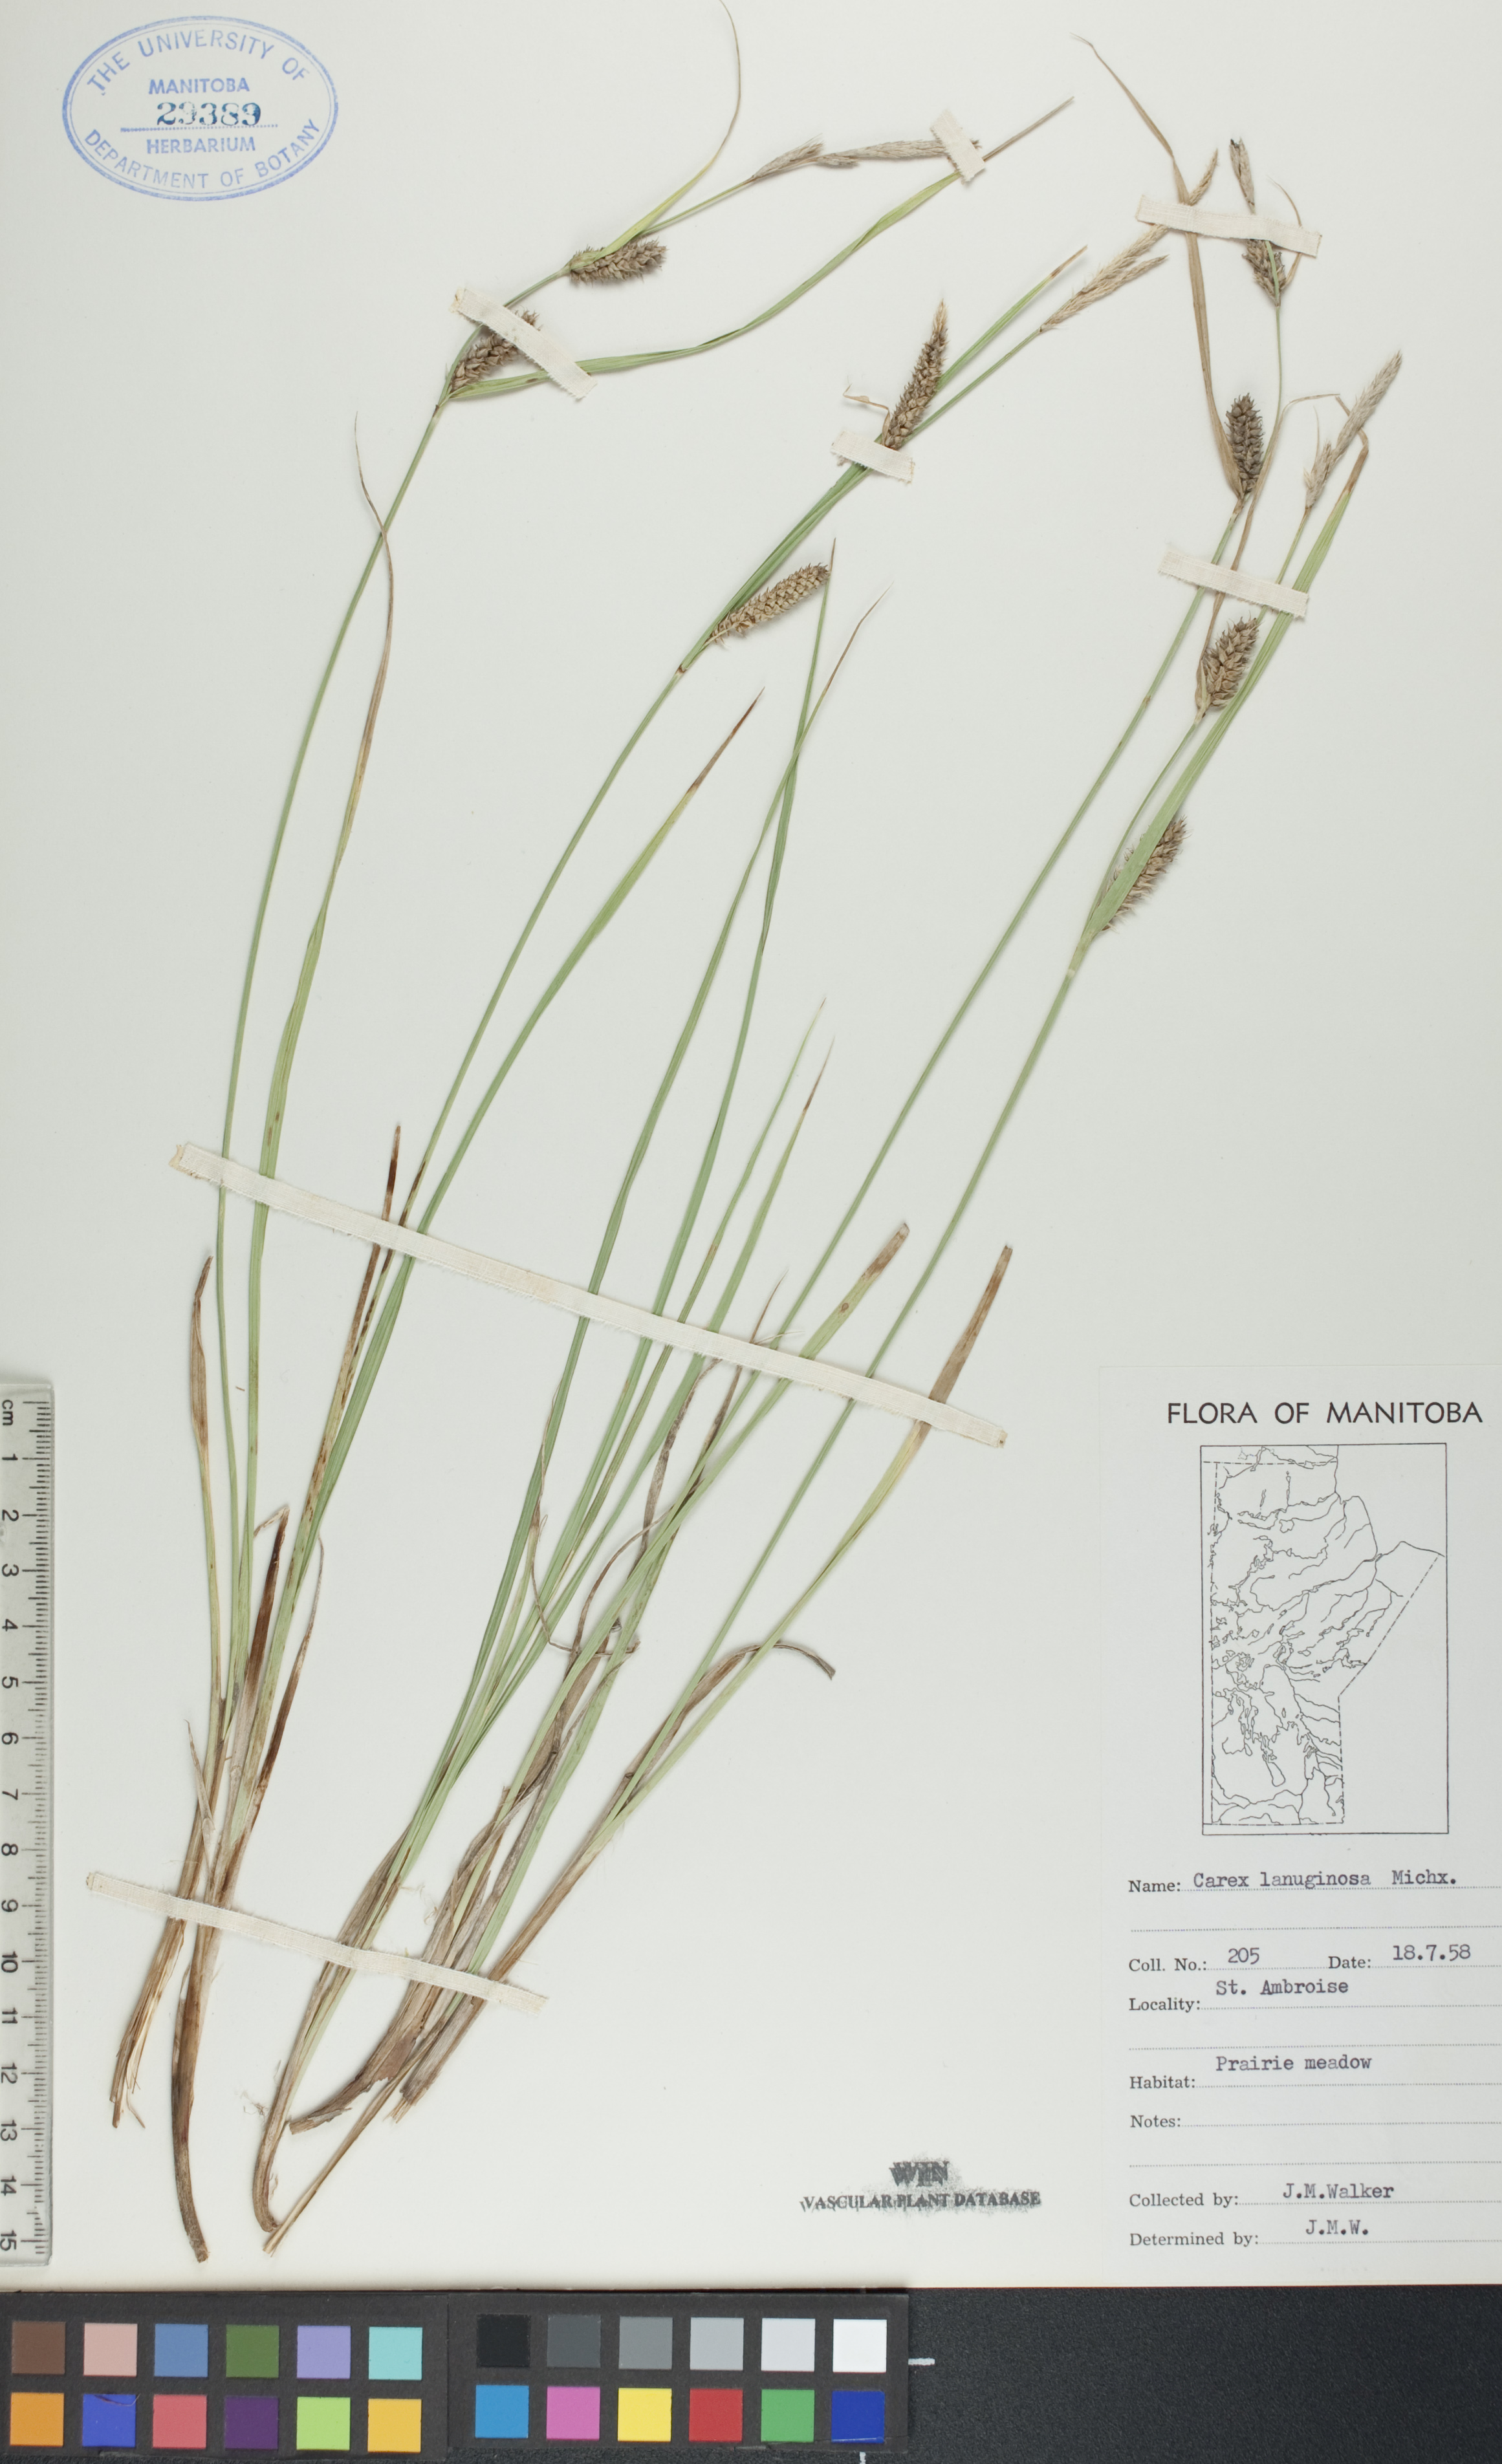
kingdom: Plantae
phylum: Tracheophyta
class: Liliopsida
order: Poales
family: Cyperaceae
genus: Carex
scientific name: Carex lasiocarpa
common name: Slender sedge
